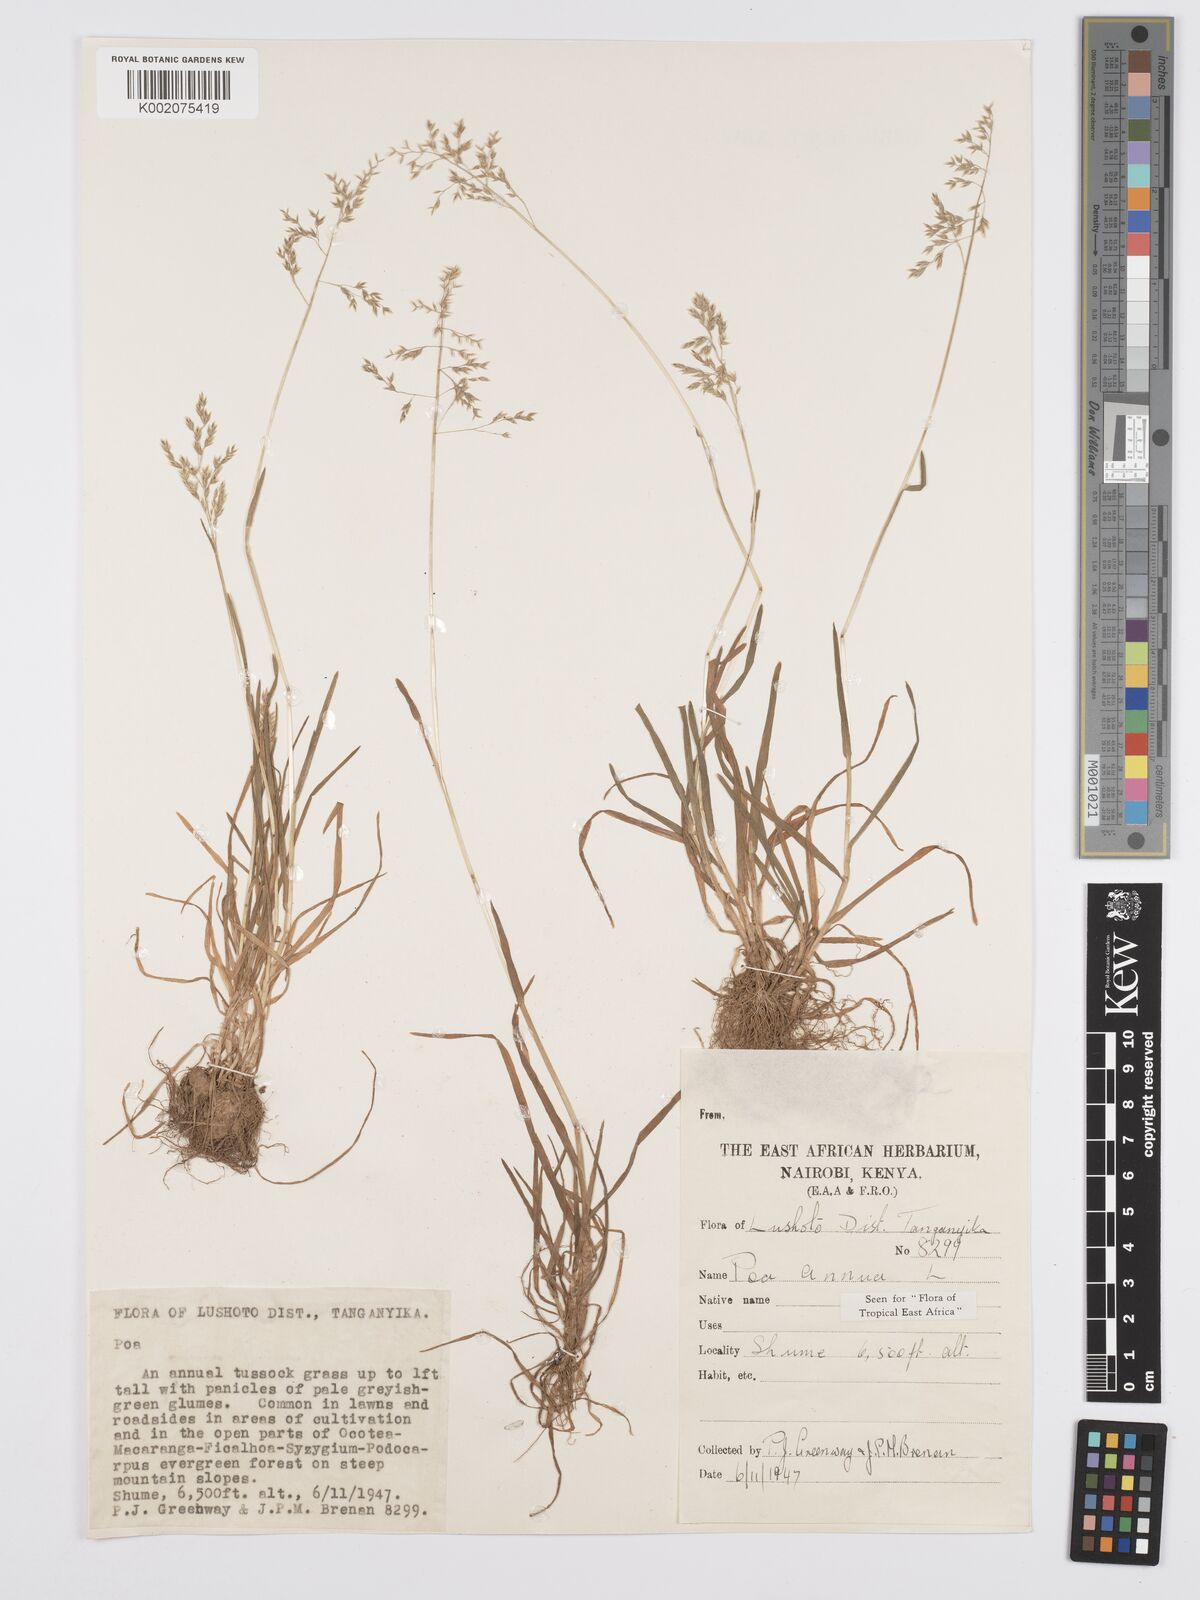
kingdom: Plantae
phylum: Tracheophyta
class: Liliopsida
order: Poales
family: Poaceae
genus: Poa
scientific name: Poa annua
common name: Annual bluegrass
